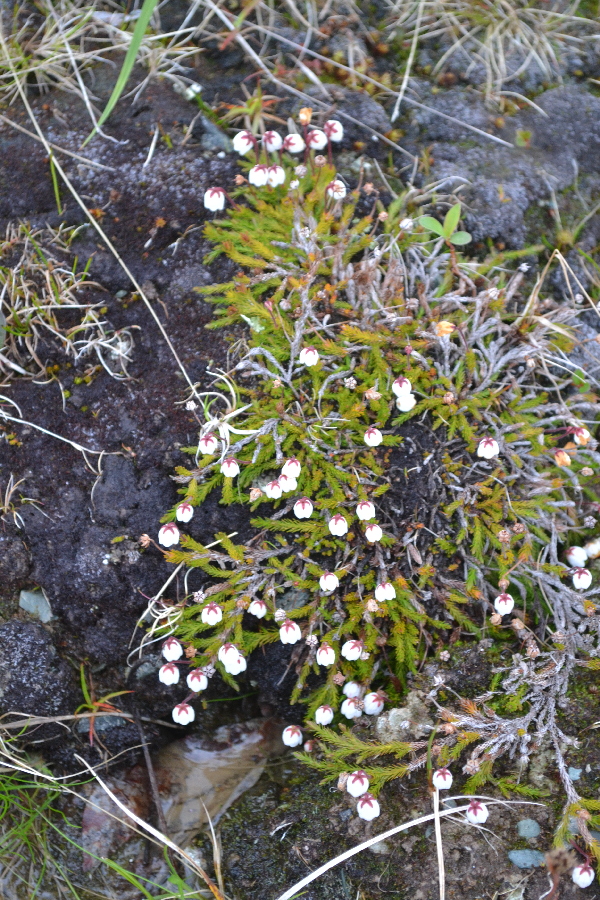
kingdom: Plantae
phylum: Tracheophyta
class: Magnoliopsida
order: Ericales
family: Ericaceae
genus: Harrimanella
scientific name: Harrimanella hypnoides
